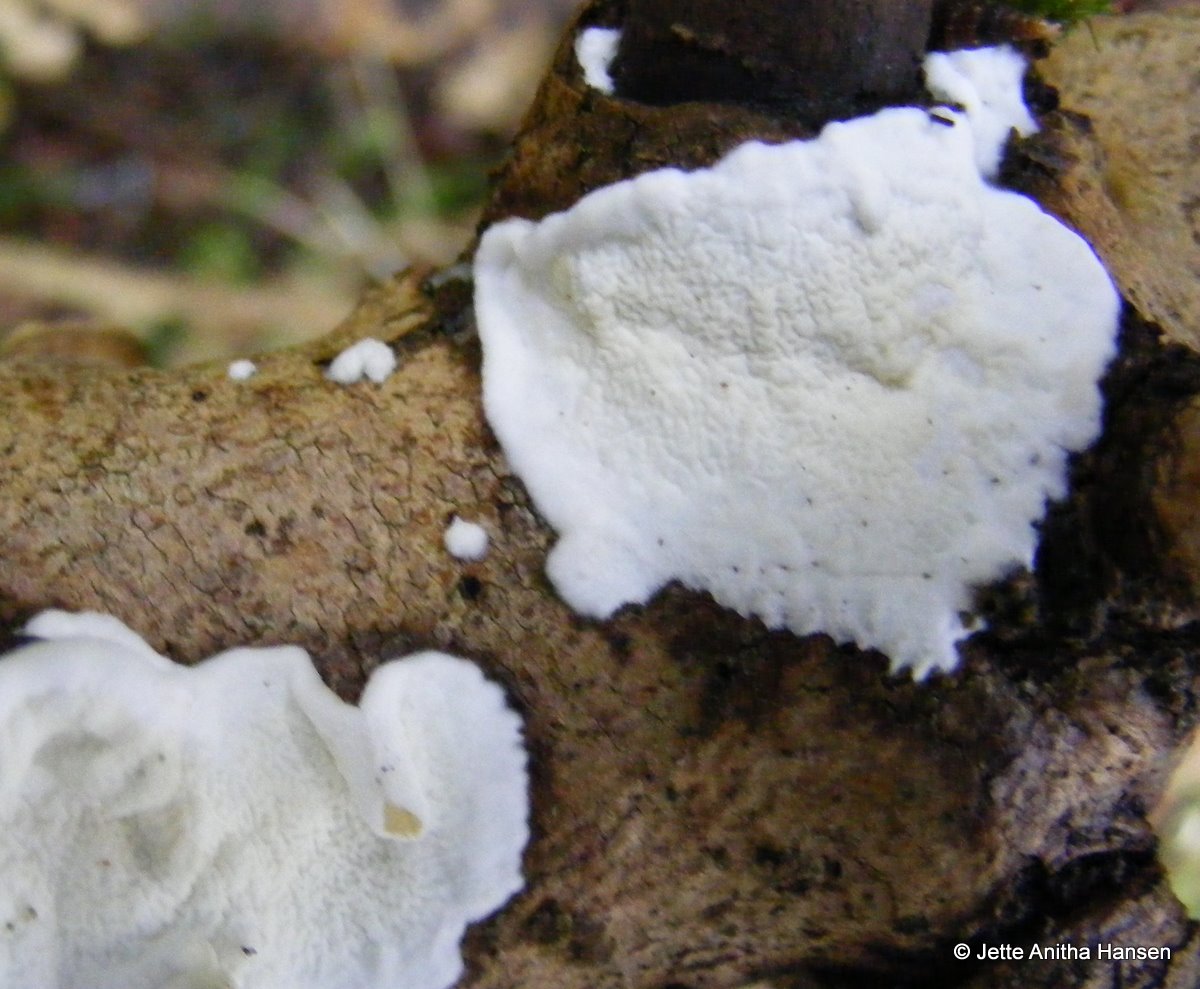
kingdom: Fungi
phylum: Basidiomycota
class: Agaricomycetes
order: Polyporales
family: Irpicaceae
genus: Byssomerulius
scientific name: Byssomerulius corium
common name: læder-åresvamp
